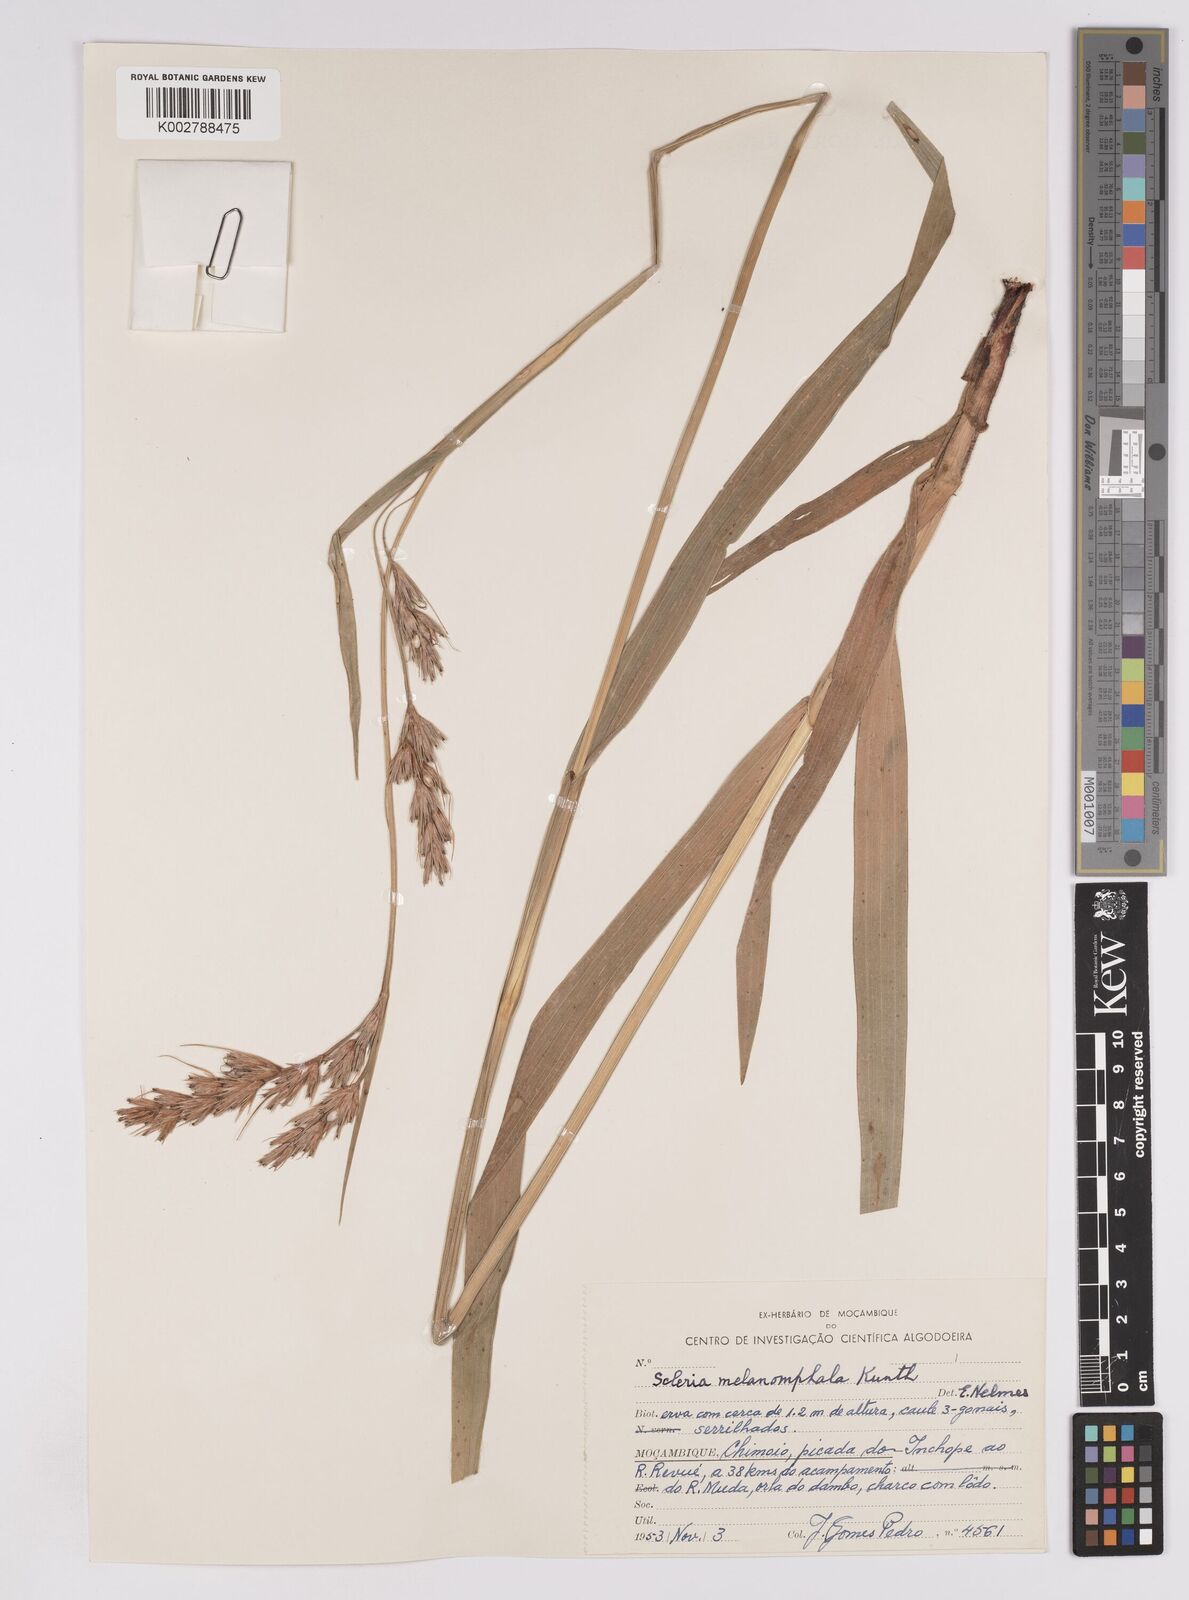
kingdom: Plantae
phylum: Tracheophyta
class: Liliopsida
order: Poales
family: Cyperaceae
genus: Scleria
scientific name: Scleria melanomphala
